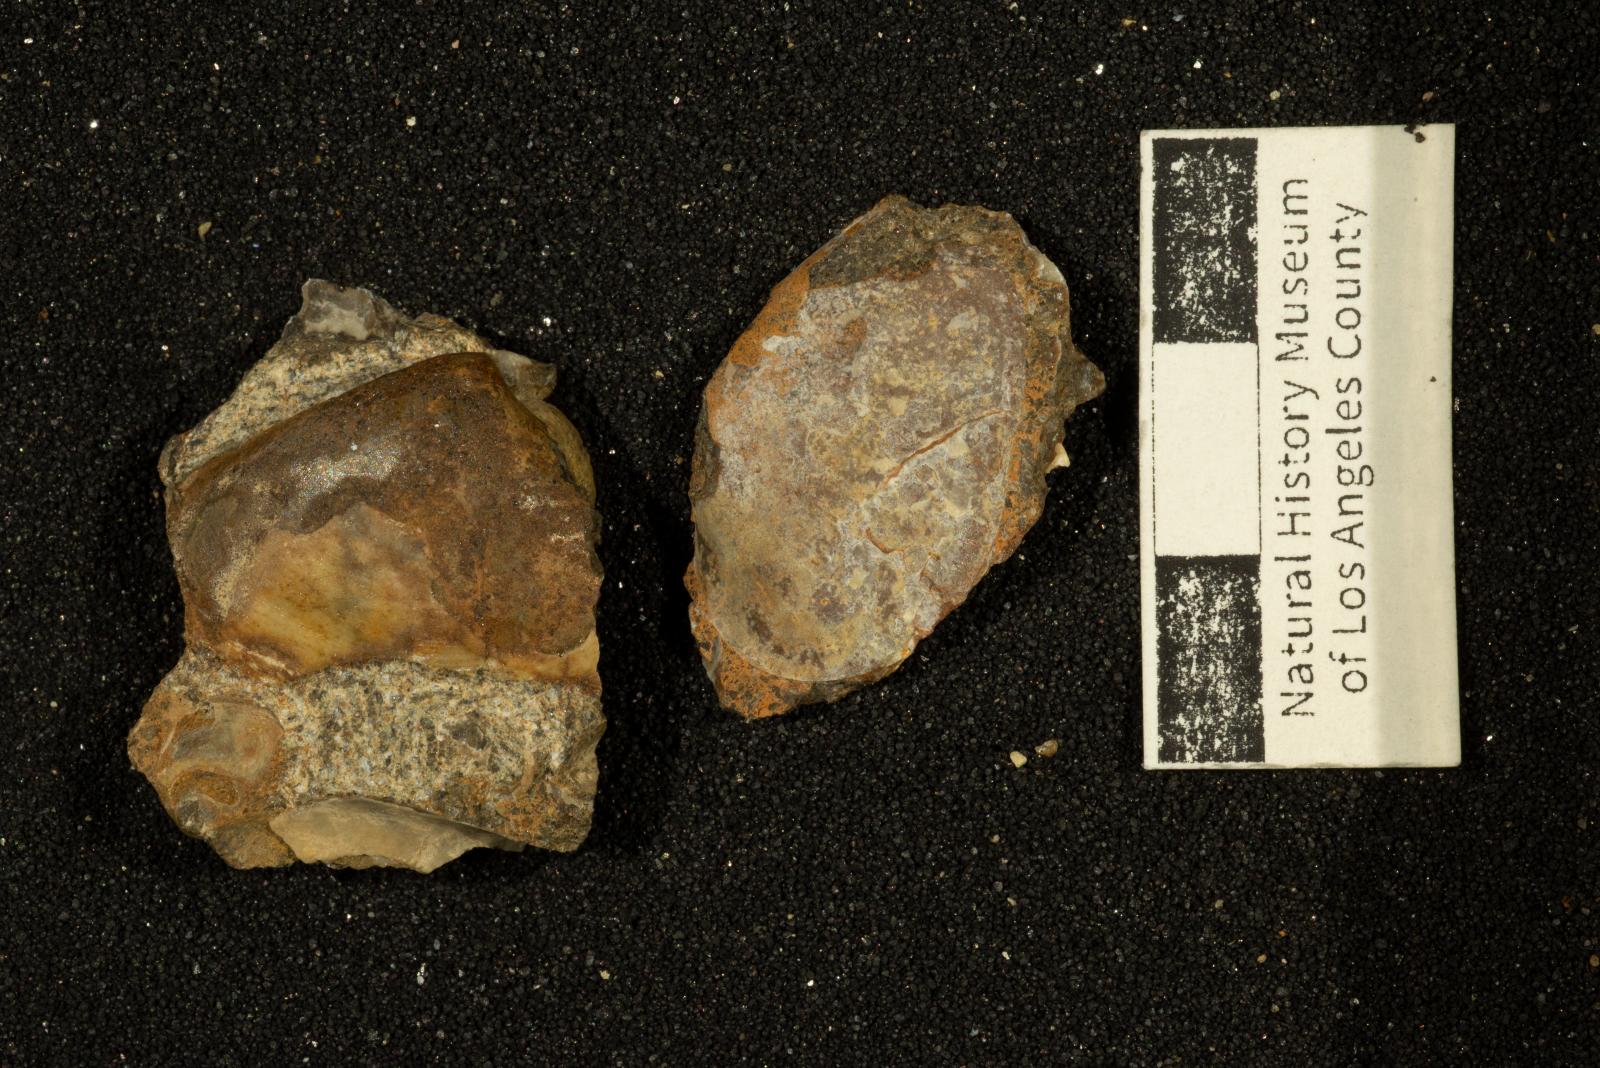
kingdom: Animalia
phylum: Mollusca
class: Bivalvia
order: Cardiida
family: Tellinidae
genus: Nelltia
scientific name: Nelltia salsa
